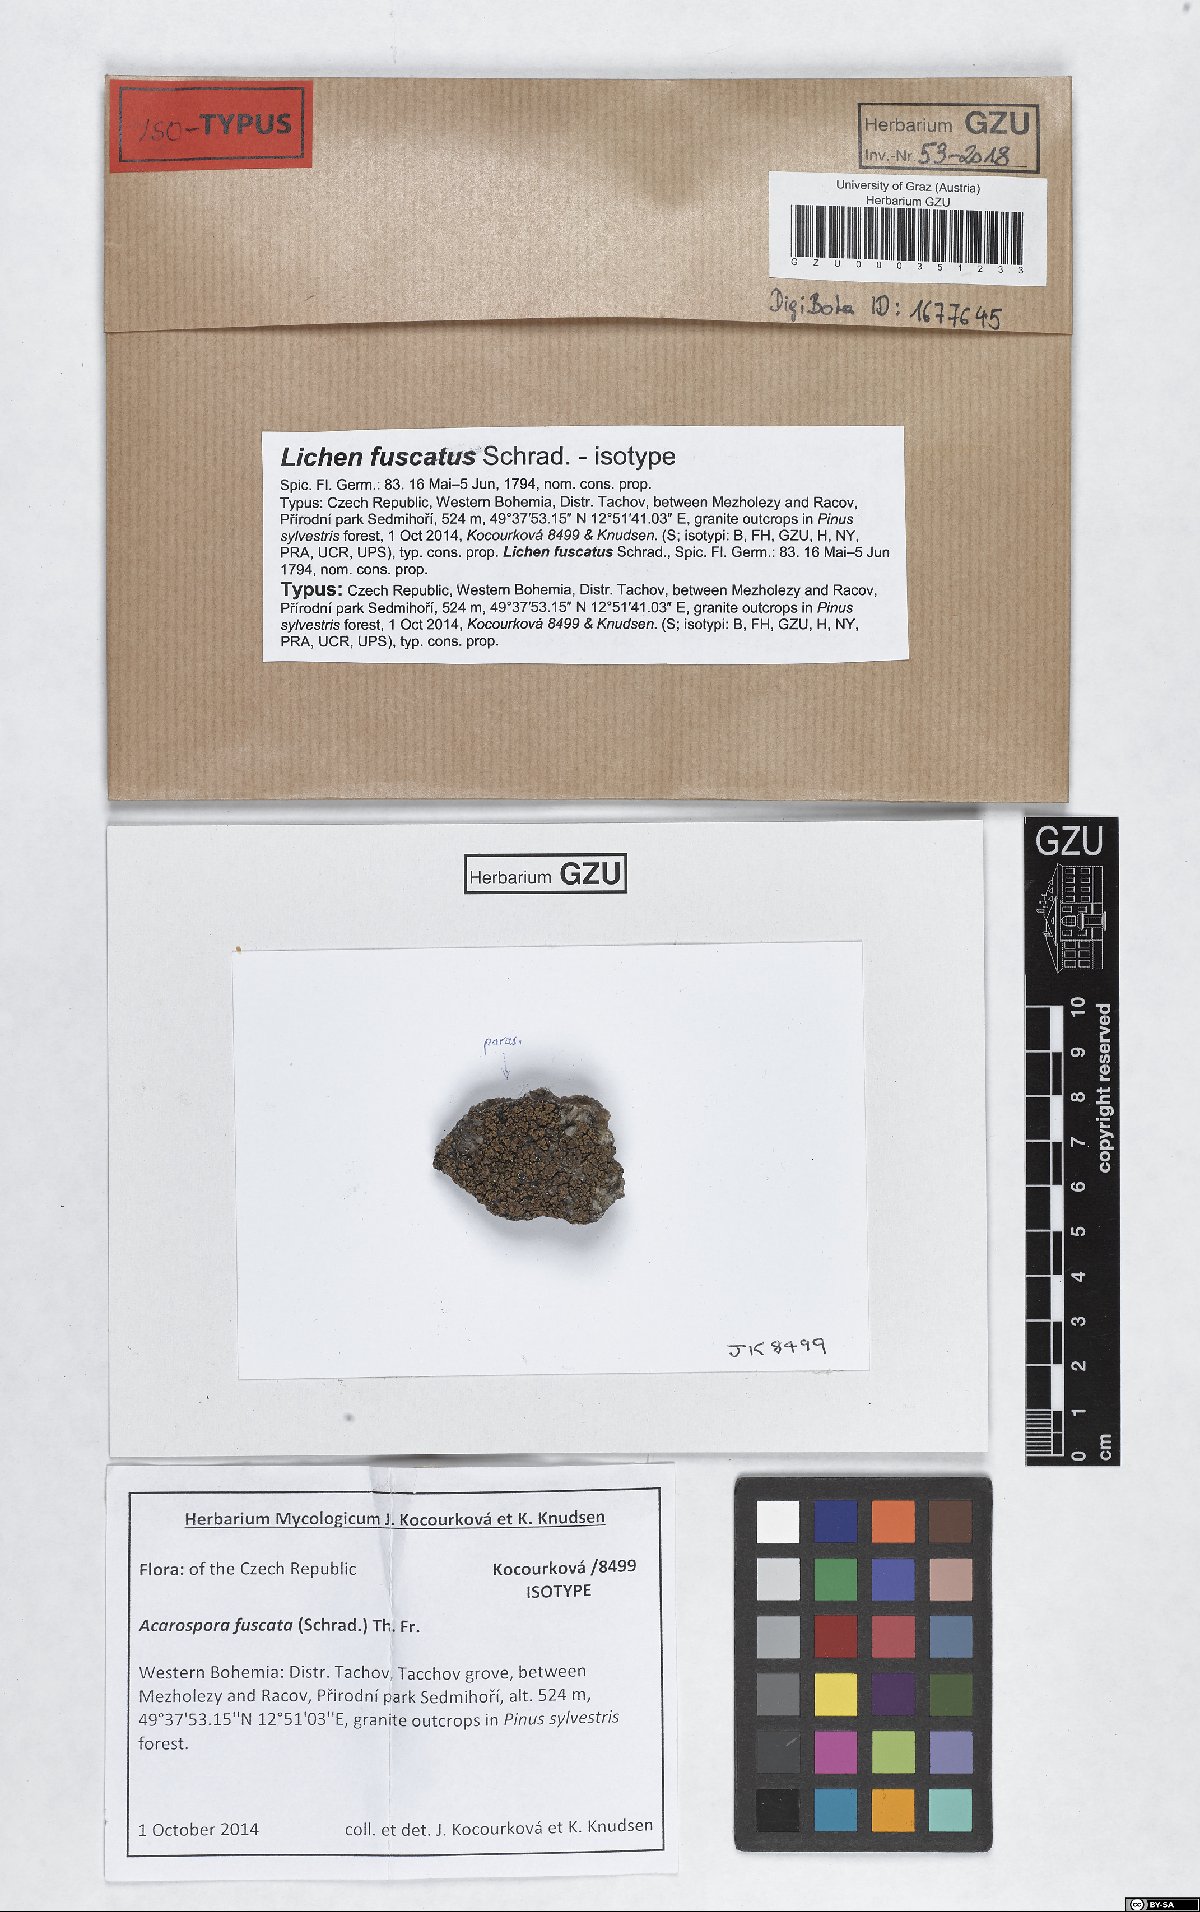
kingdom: Fungi
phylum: Ascomycota
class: Lecanoromycetes
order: Acarosporales
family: Acarosporaceae
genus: Acarospora
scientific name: Acarospora fuscata
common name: Brown cobblestone lichen
